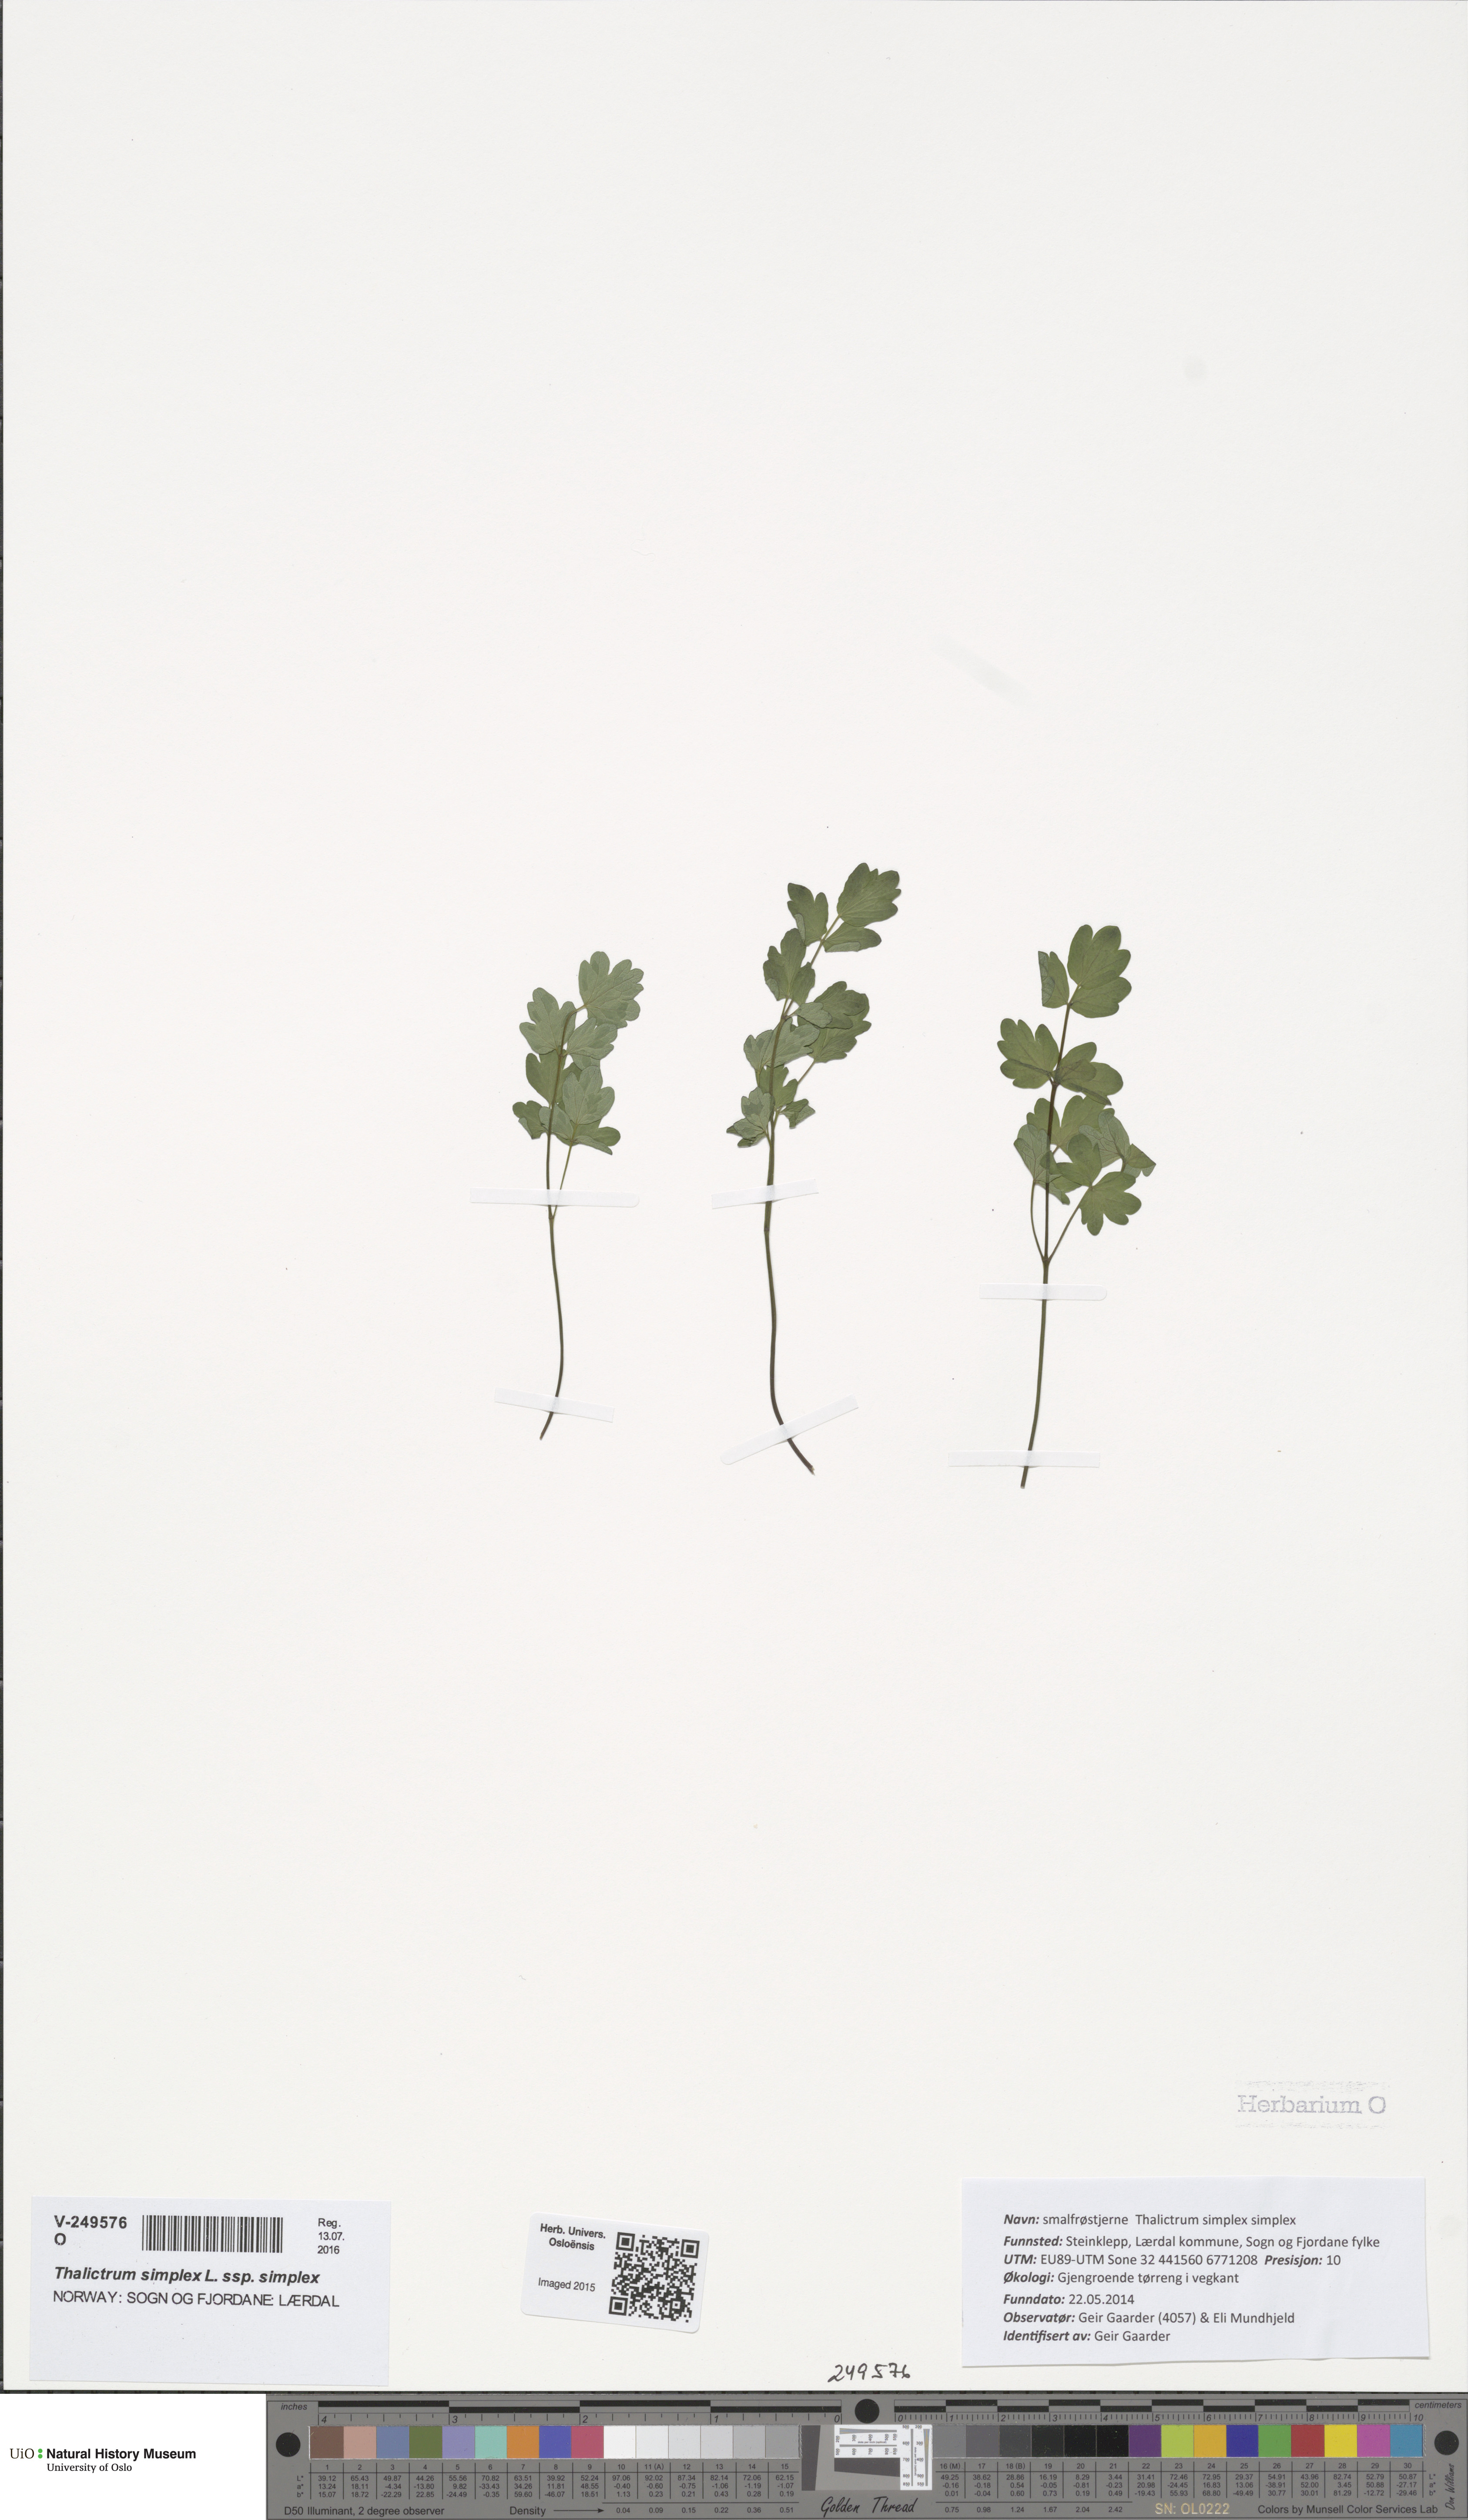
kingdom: Plantae
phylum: Tracheophyta
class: Magnoliopsida
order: Ranunculales
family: Ranunculaceae
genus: Thalictrum
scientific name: Thalictrum simplex
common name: Small meadow-rue
